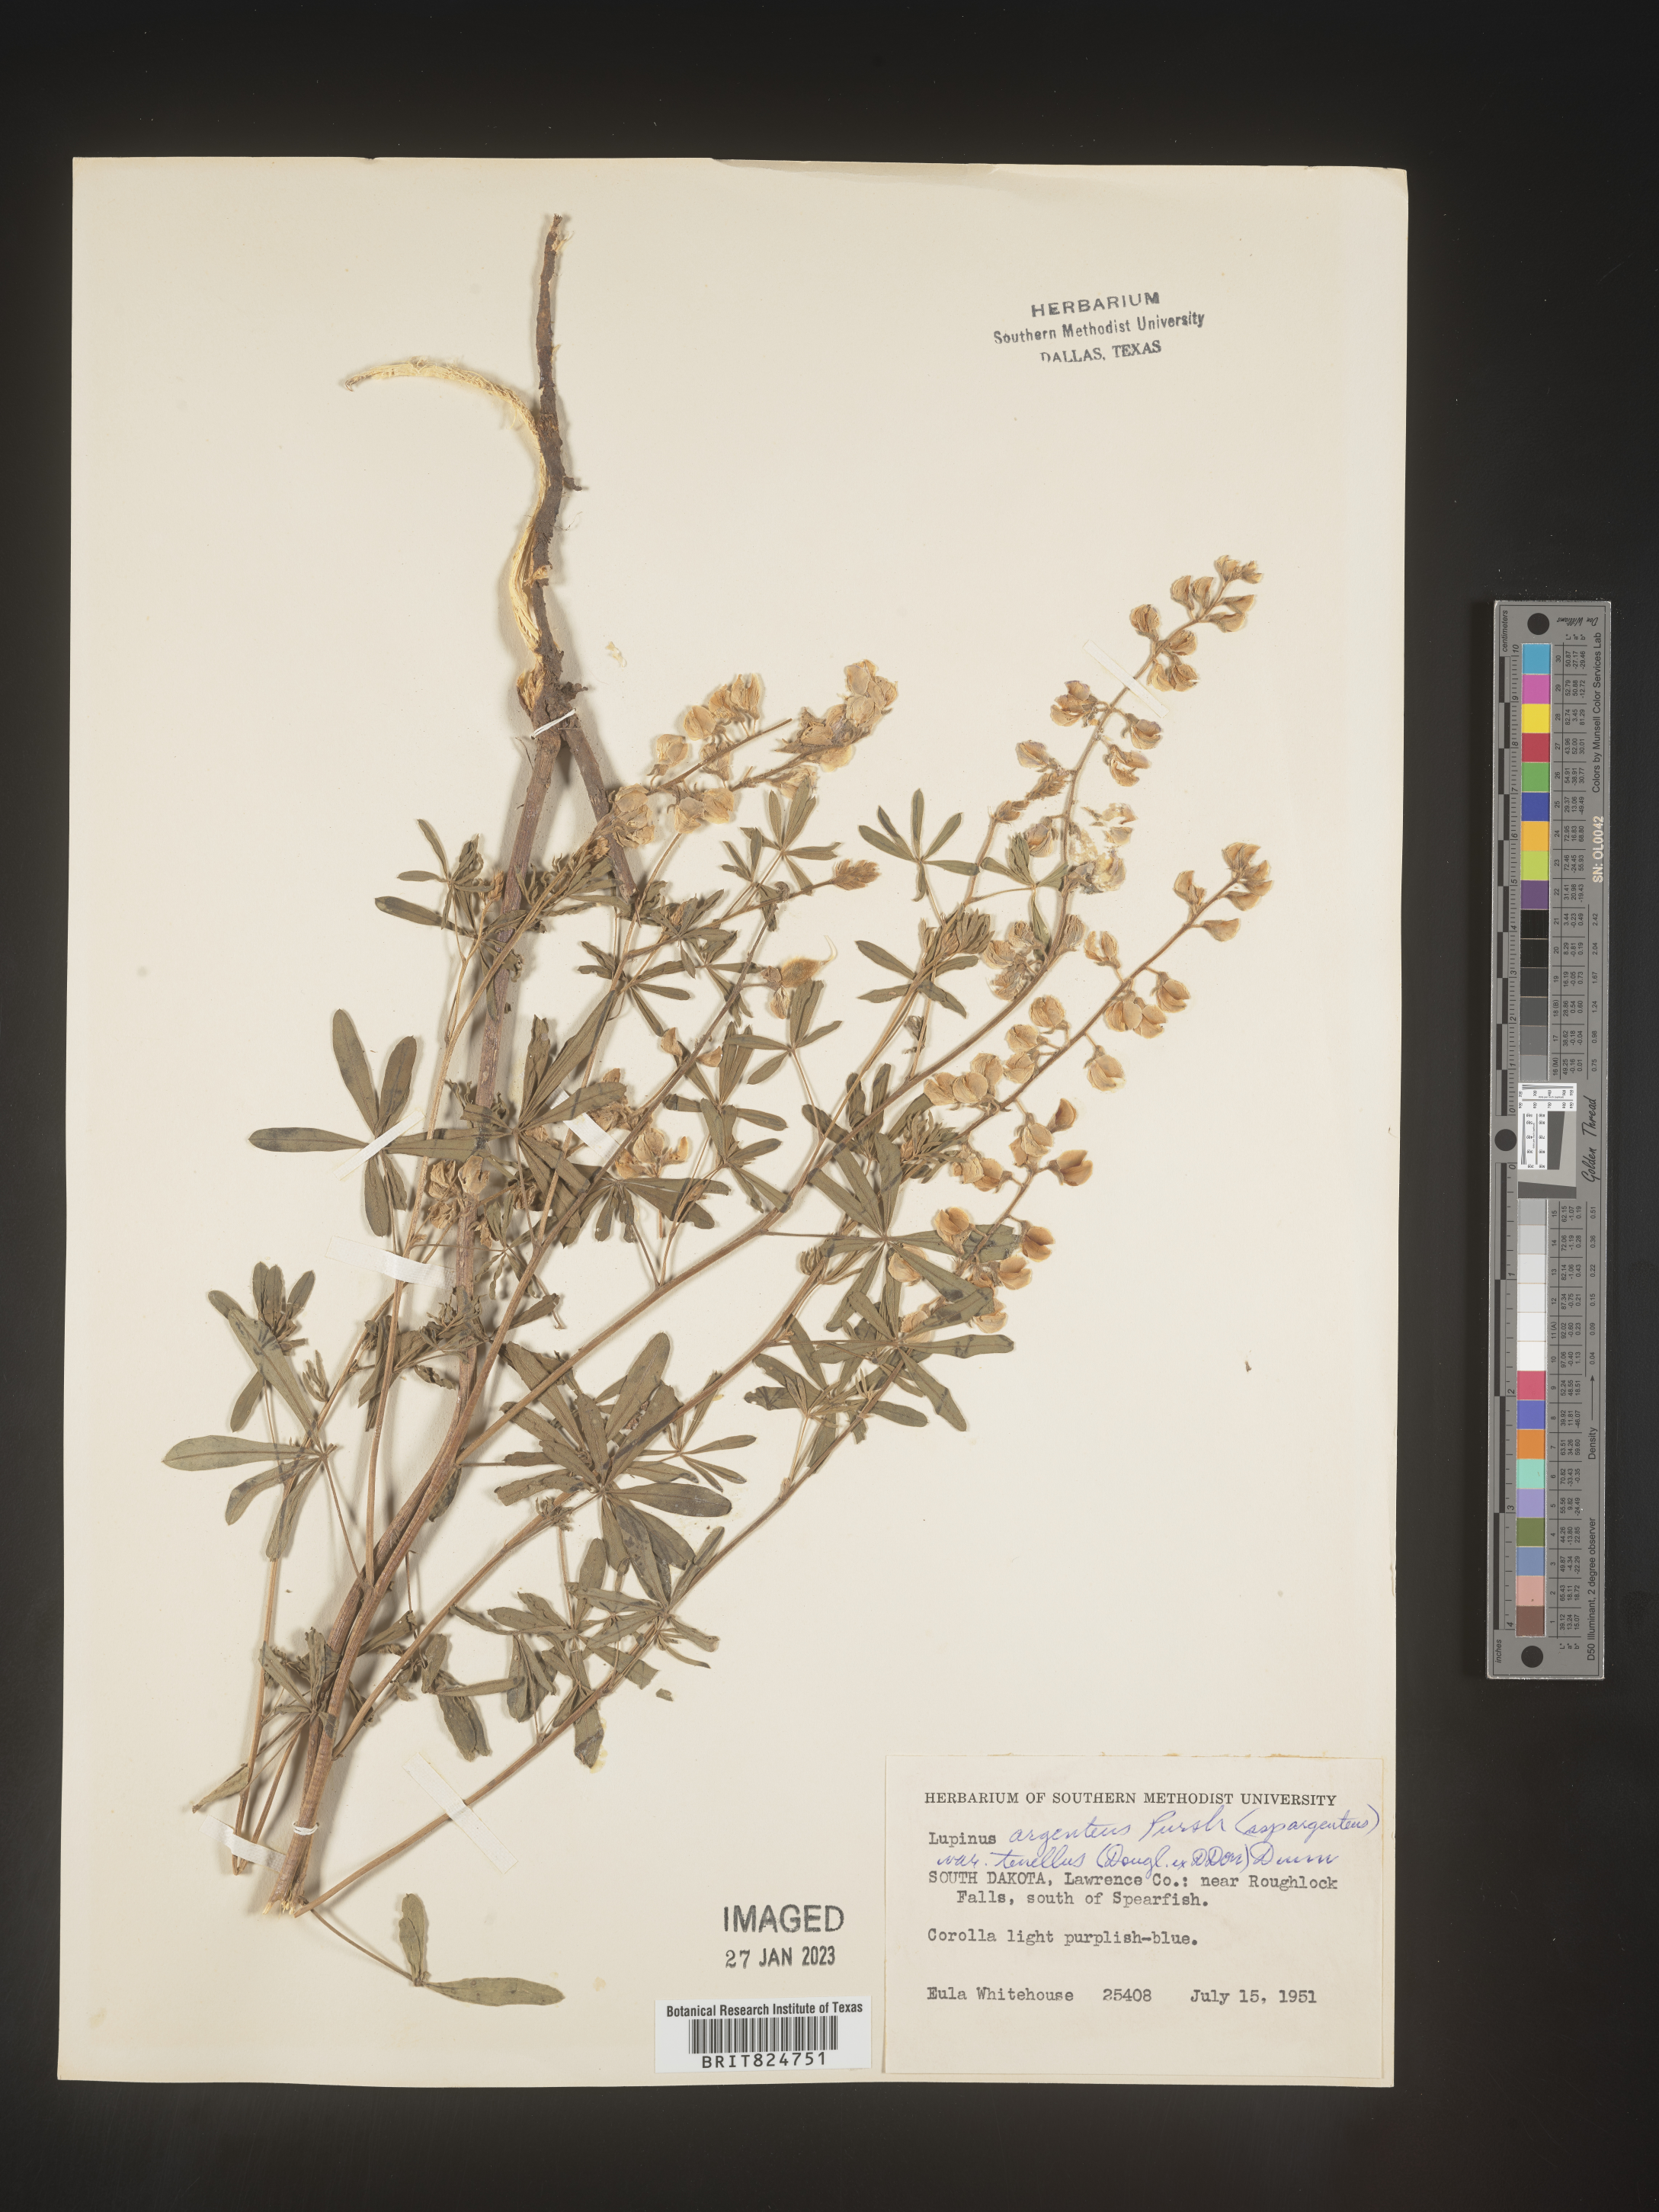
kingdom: Plantae
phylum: Tracheophyta
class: Magnoliopsida
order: Fabales
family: Fabaceae
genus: Lupinus
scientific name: Lupinus argenteus
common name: Silvery lupine
